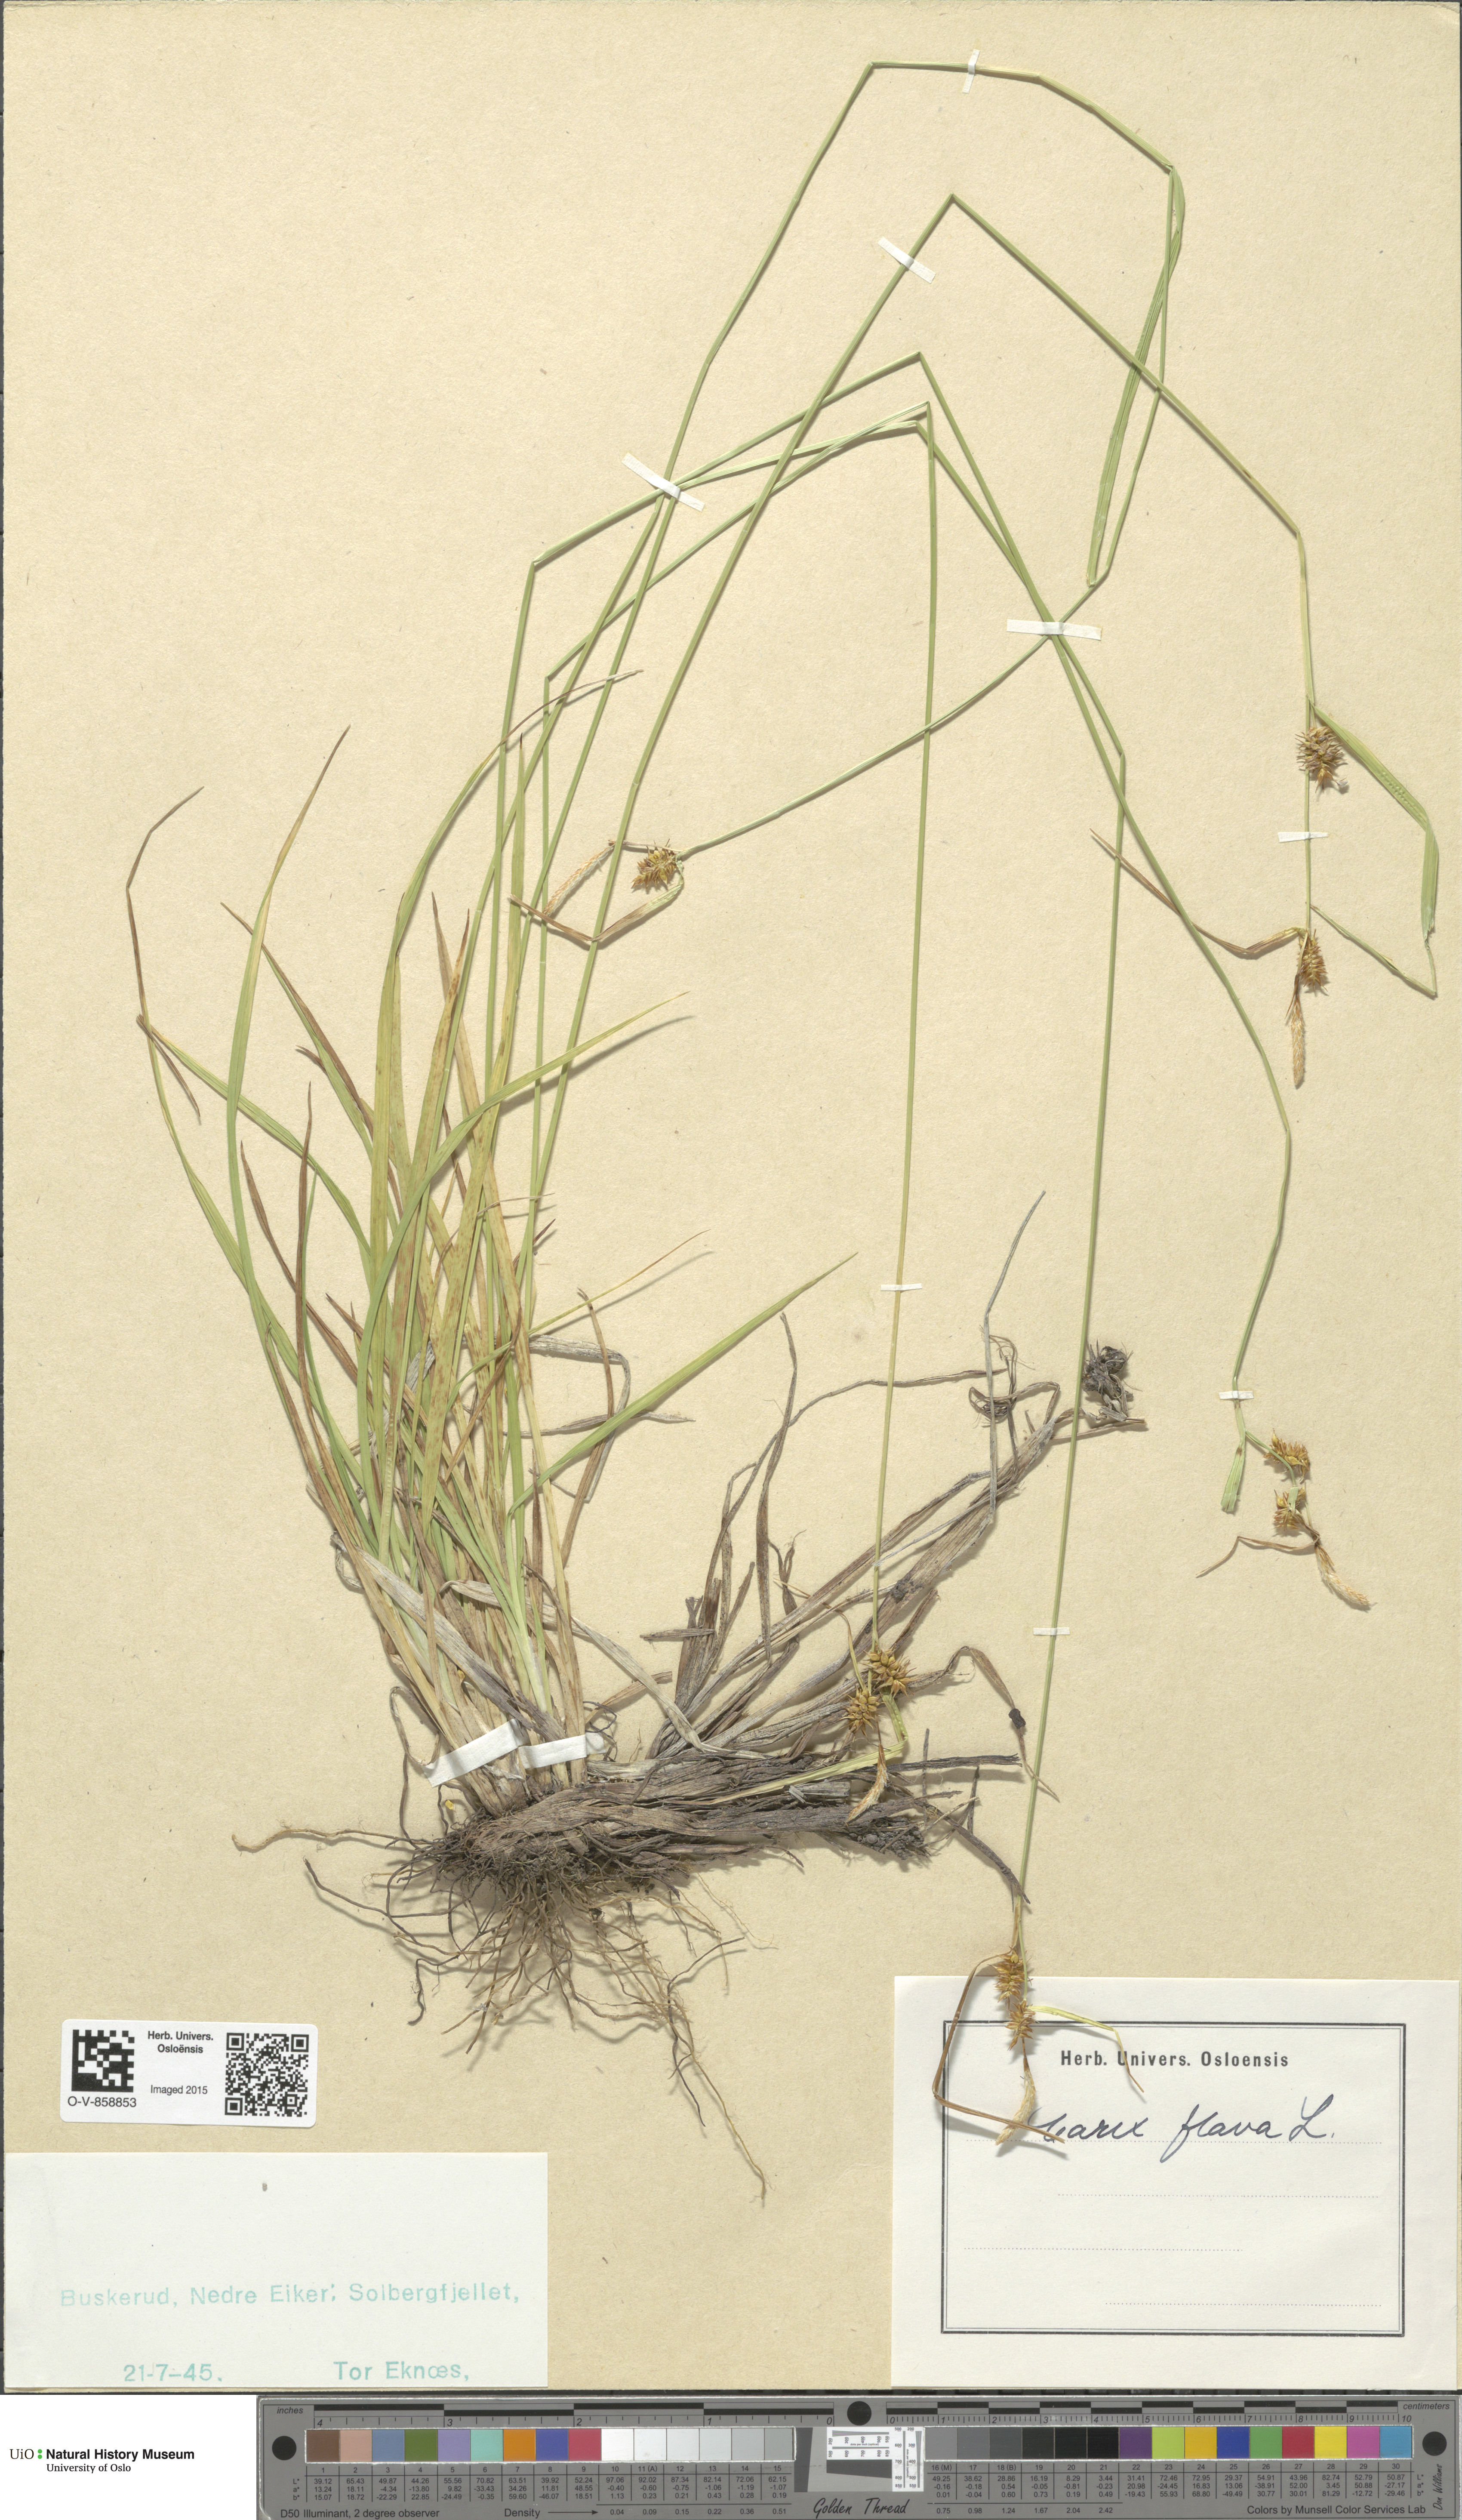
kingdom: Plantae
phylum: Tracheophyta
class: Liliopsida
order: Poales
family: Cyperaceae
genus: Carex
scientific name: Carex flava
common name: Large yellow-sedge
